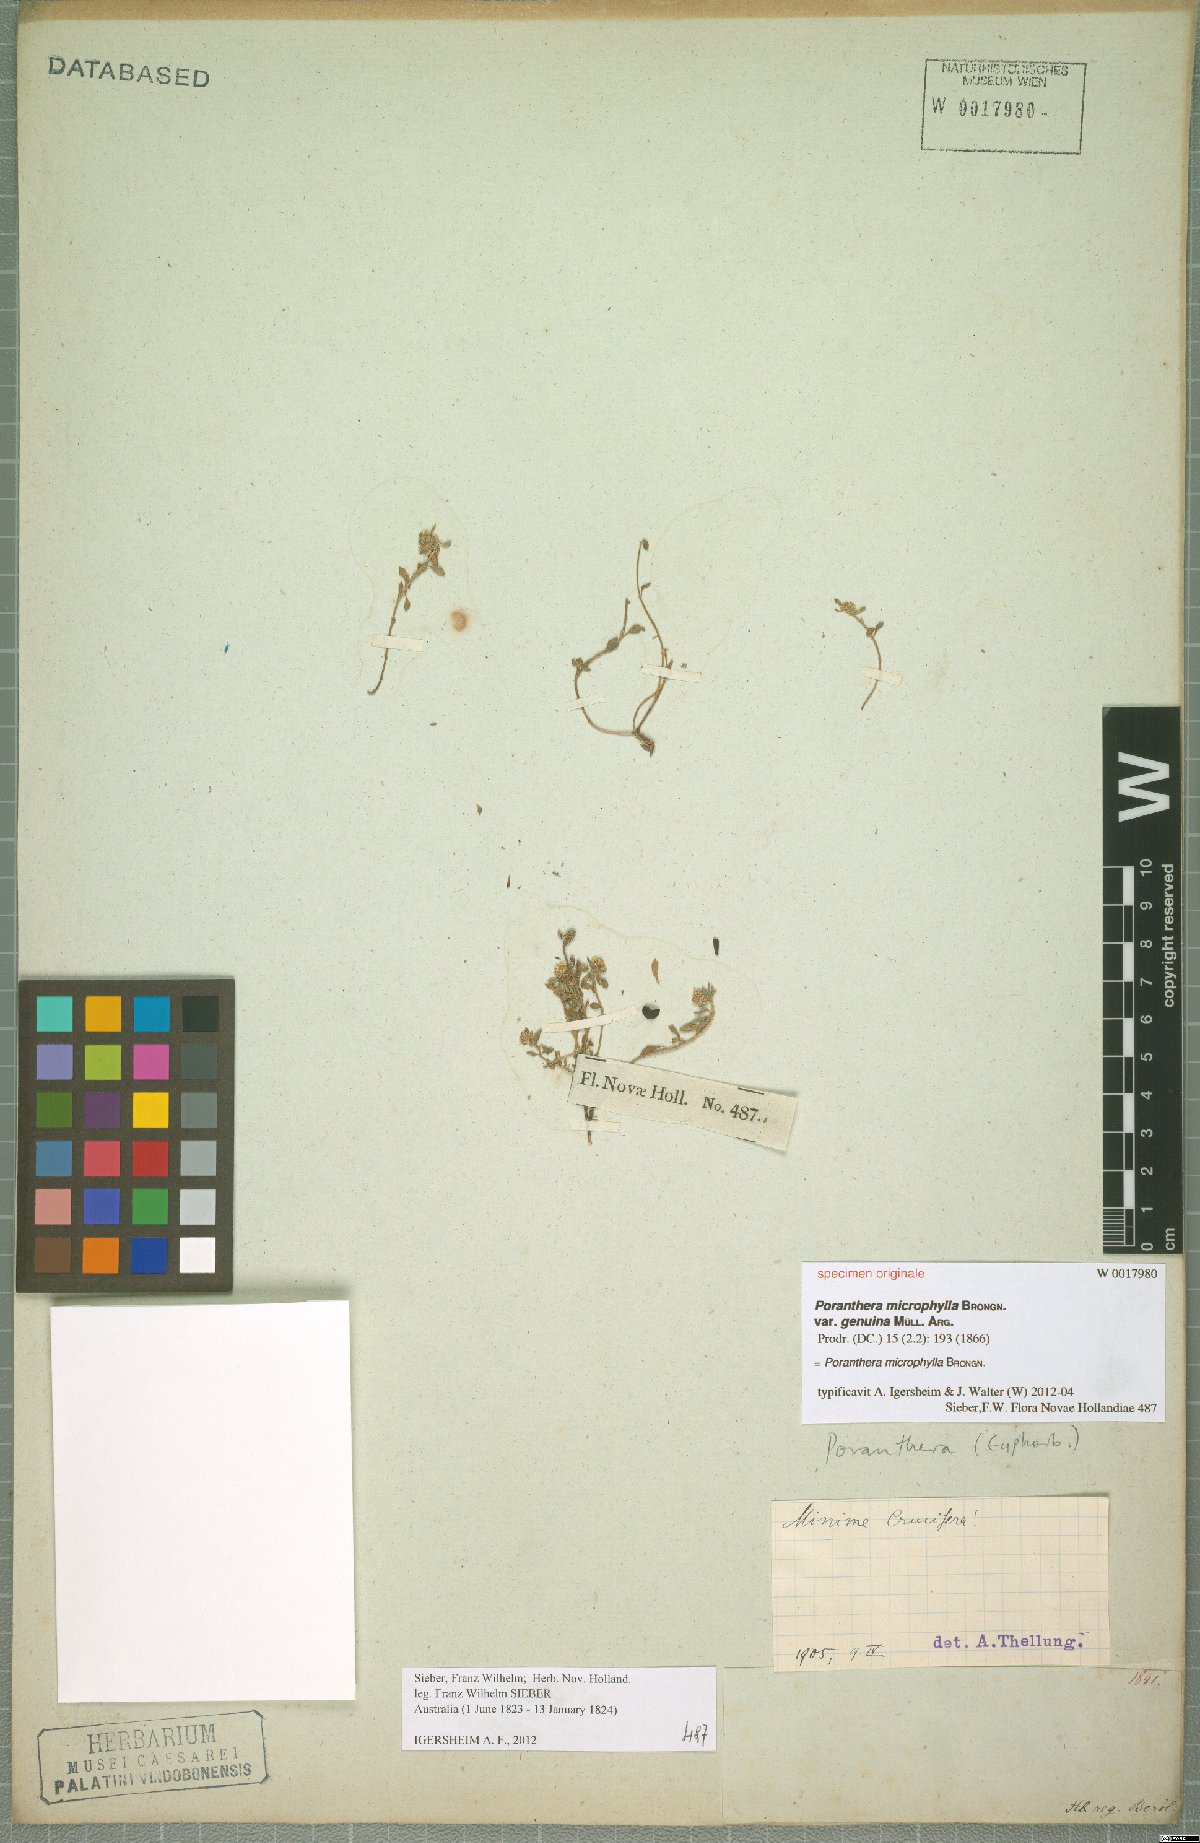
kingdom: Plantae
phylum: Tracheophyta
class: Magnoliopsida
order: Malpighiales
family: Phyllanthaceae
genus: Poranthera
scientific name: Poranthera microphylla
